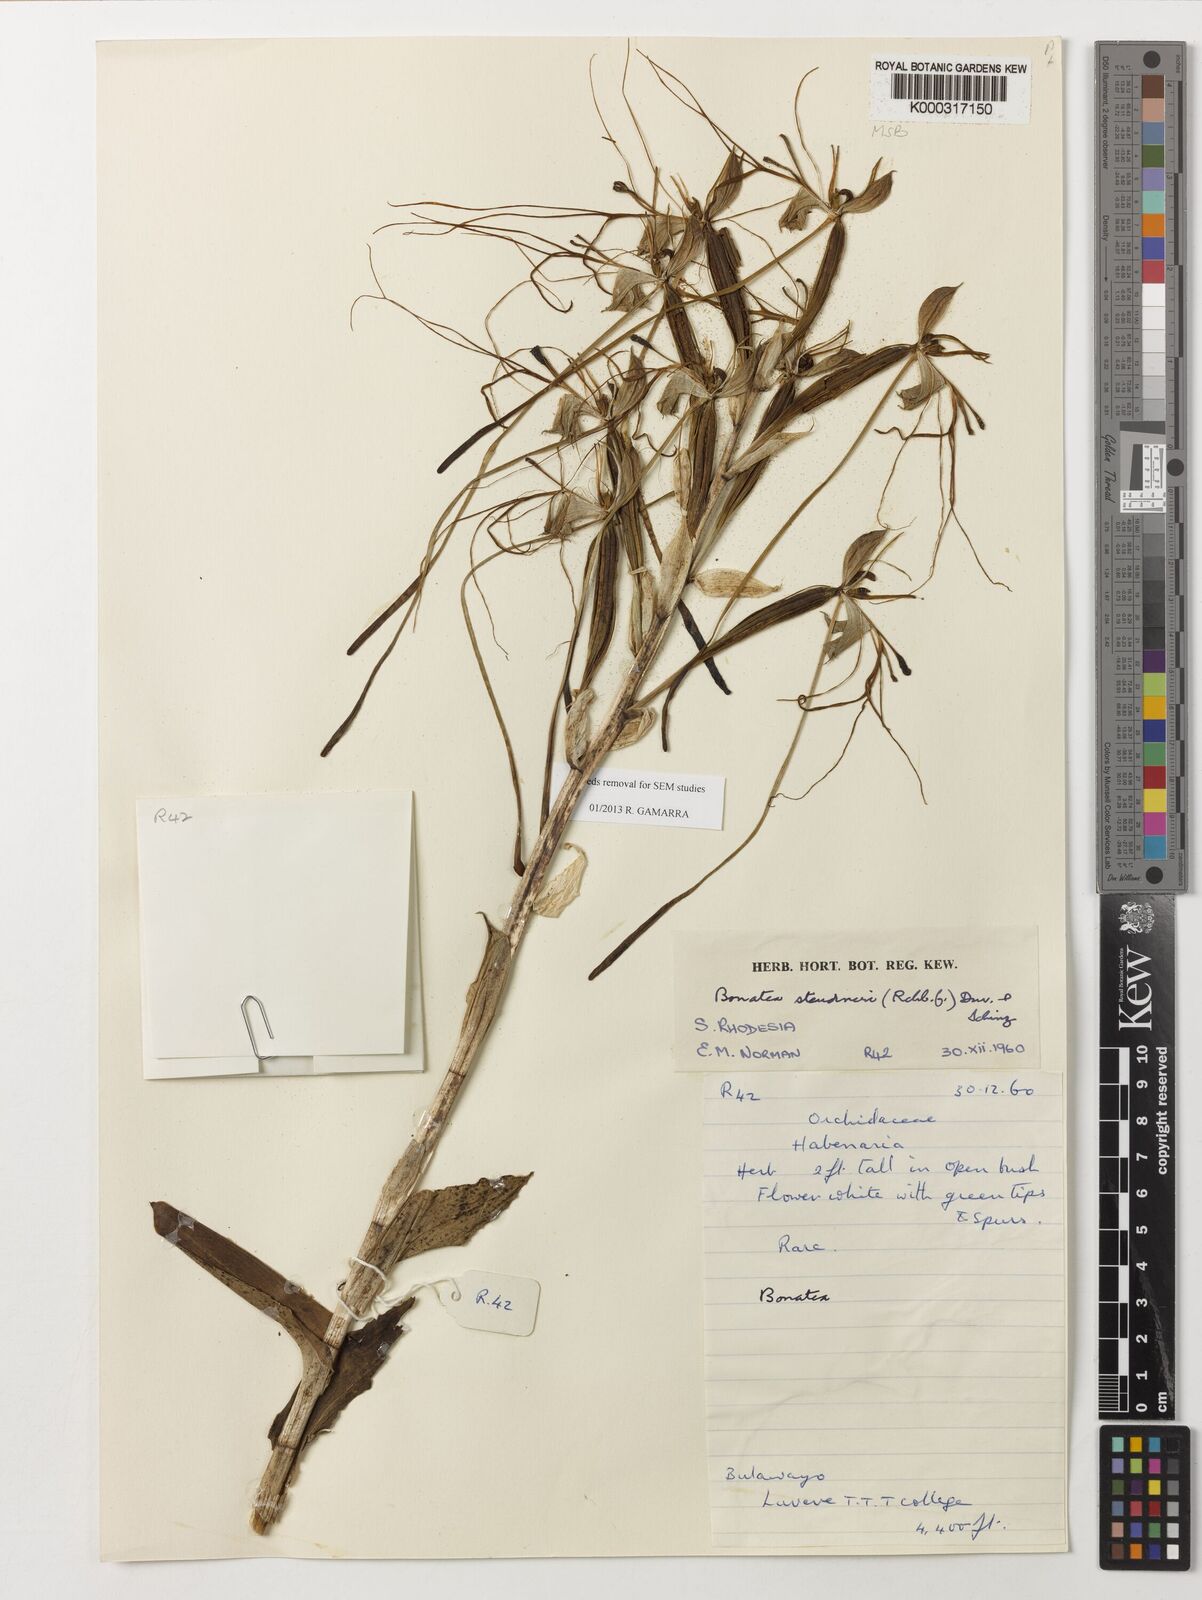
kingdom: Plantae
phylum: Tracheophyta
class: Liliopsida
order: Asparagales
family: Orchidaceae
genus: Bonatea
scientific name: Bonatea steudneri
